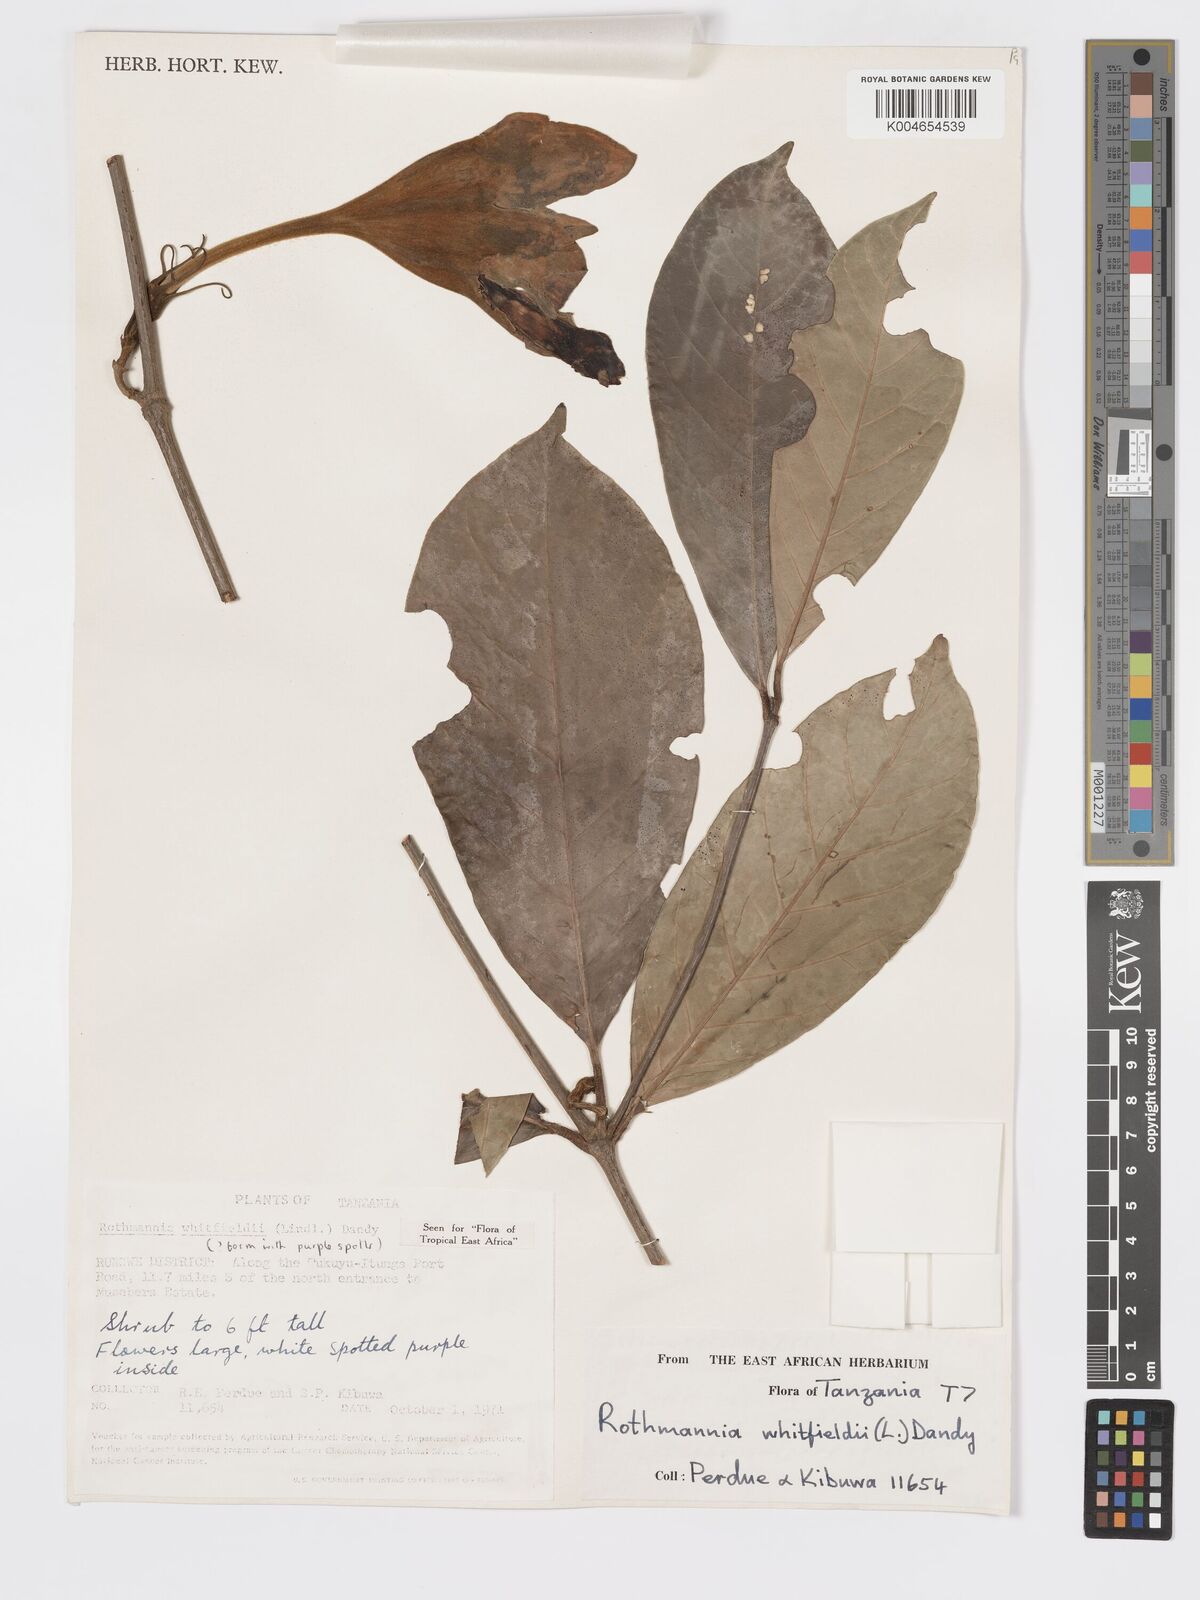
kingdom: Plantae
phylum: Tracheophyta
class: Magnoliopsida
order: Gentianales
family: Rubiaceae
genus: Rothmannia
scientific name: Rothmannia whitfieldii
